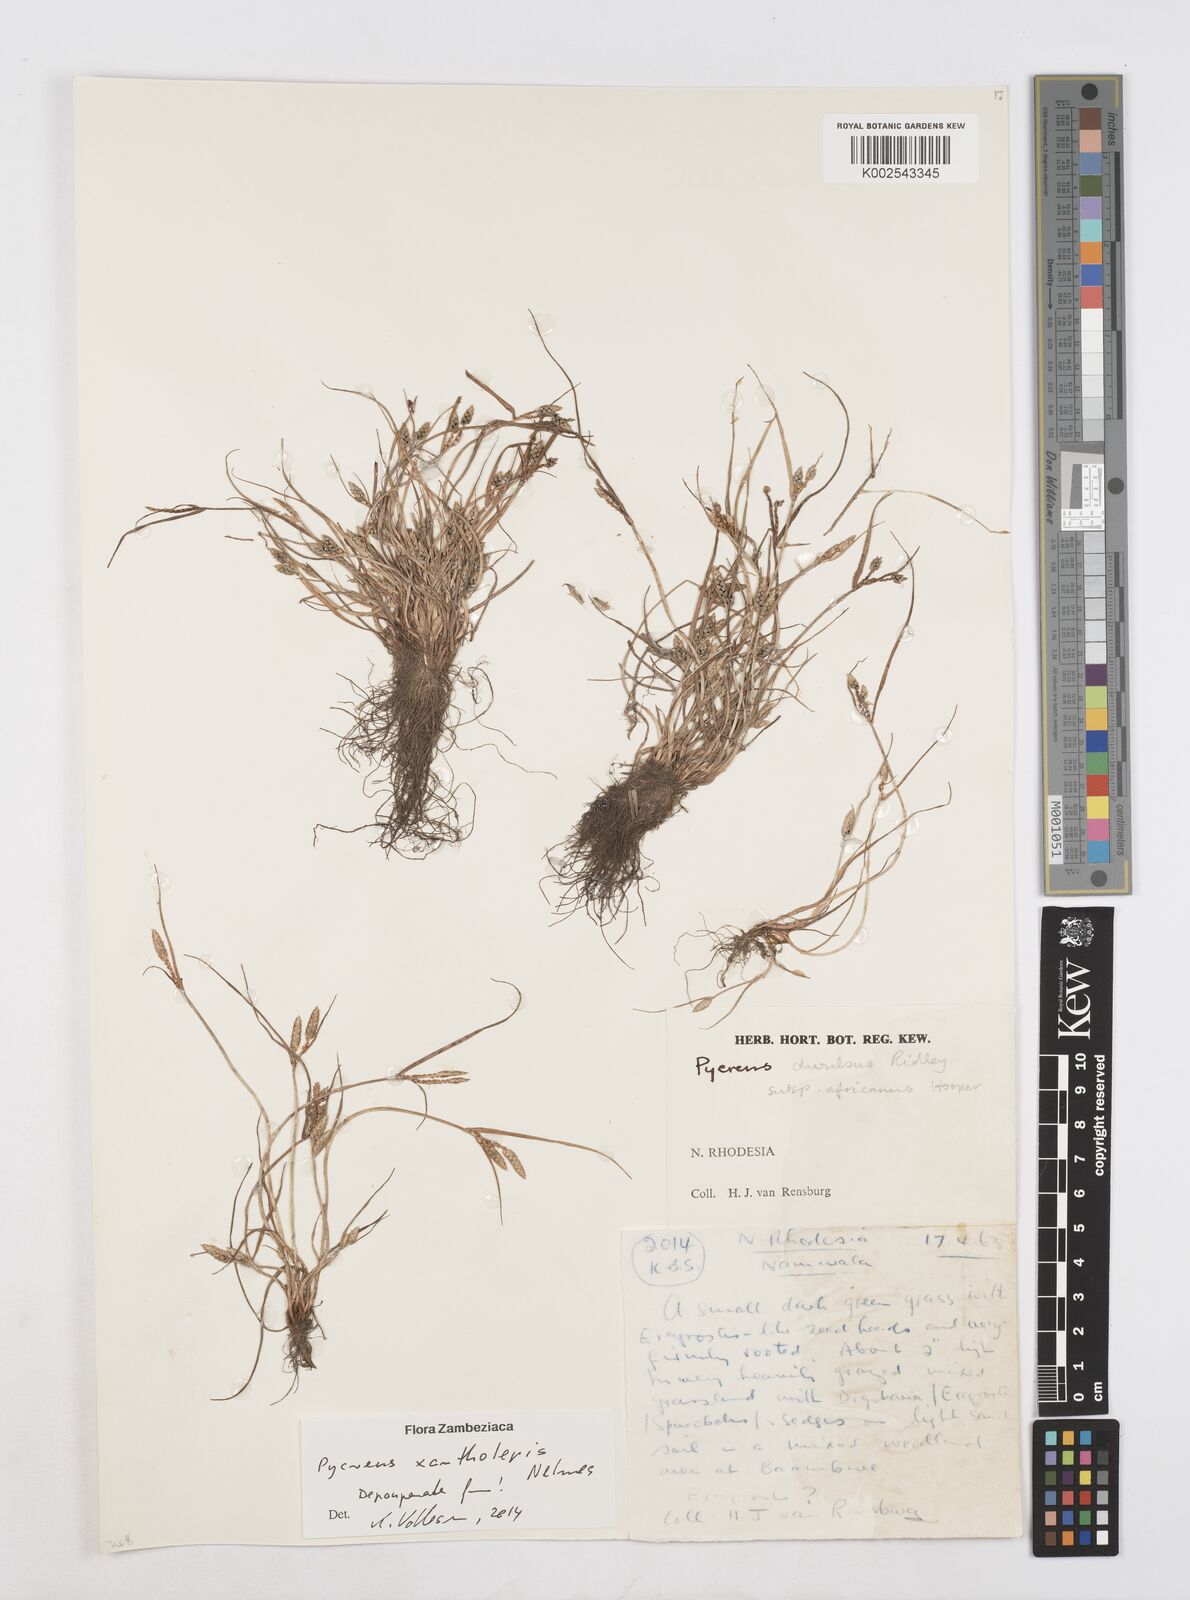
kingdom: Plantae
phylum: Tracheophyta
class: Liliopsida
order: Poales
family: Cyperaceae
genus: Cyperus
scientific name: Cyperus xantholepis
